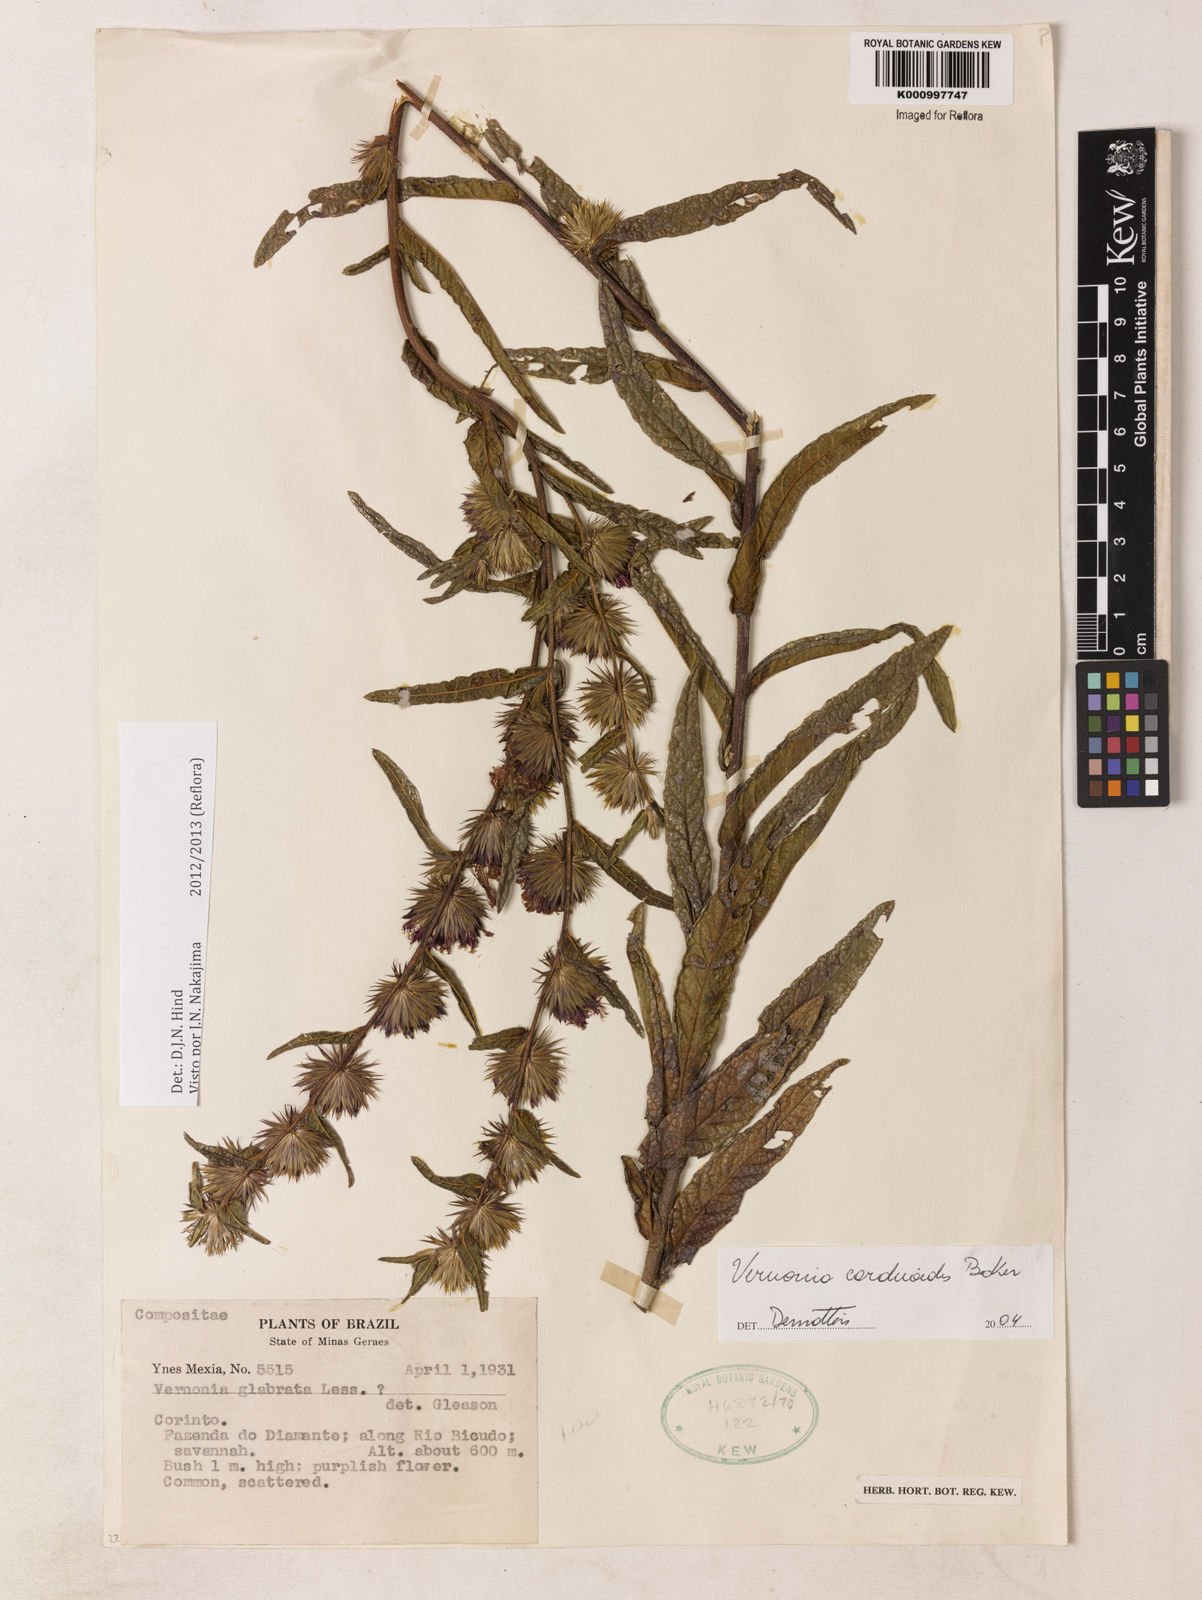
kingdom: Plantae
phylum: Tracheophyta
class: Magnoliopsida
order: Asterales
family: Asteraceae
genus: Lessingianthus
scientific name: Lessingianthus carduoides
